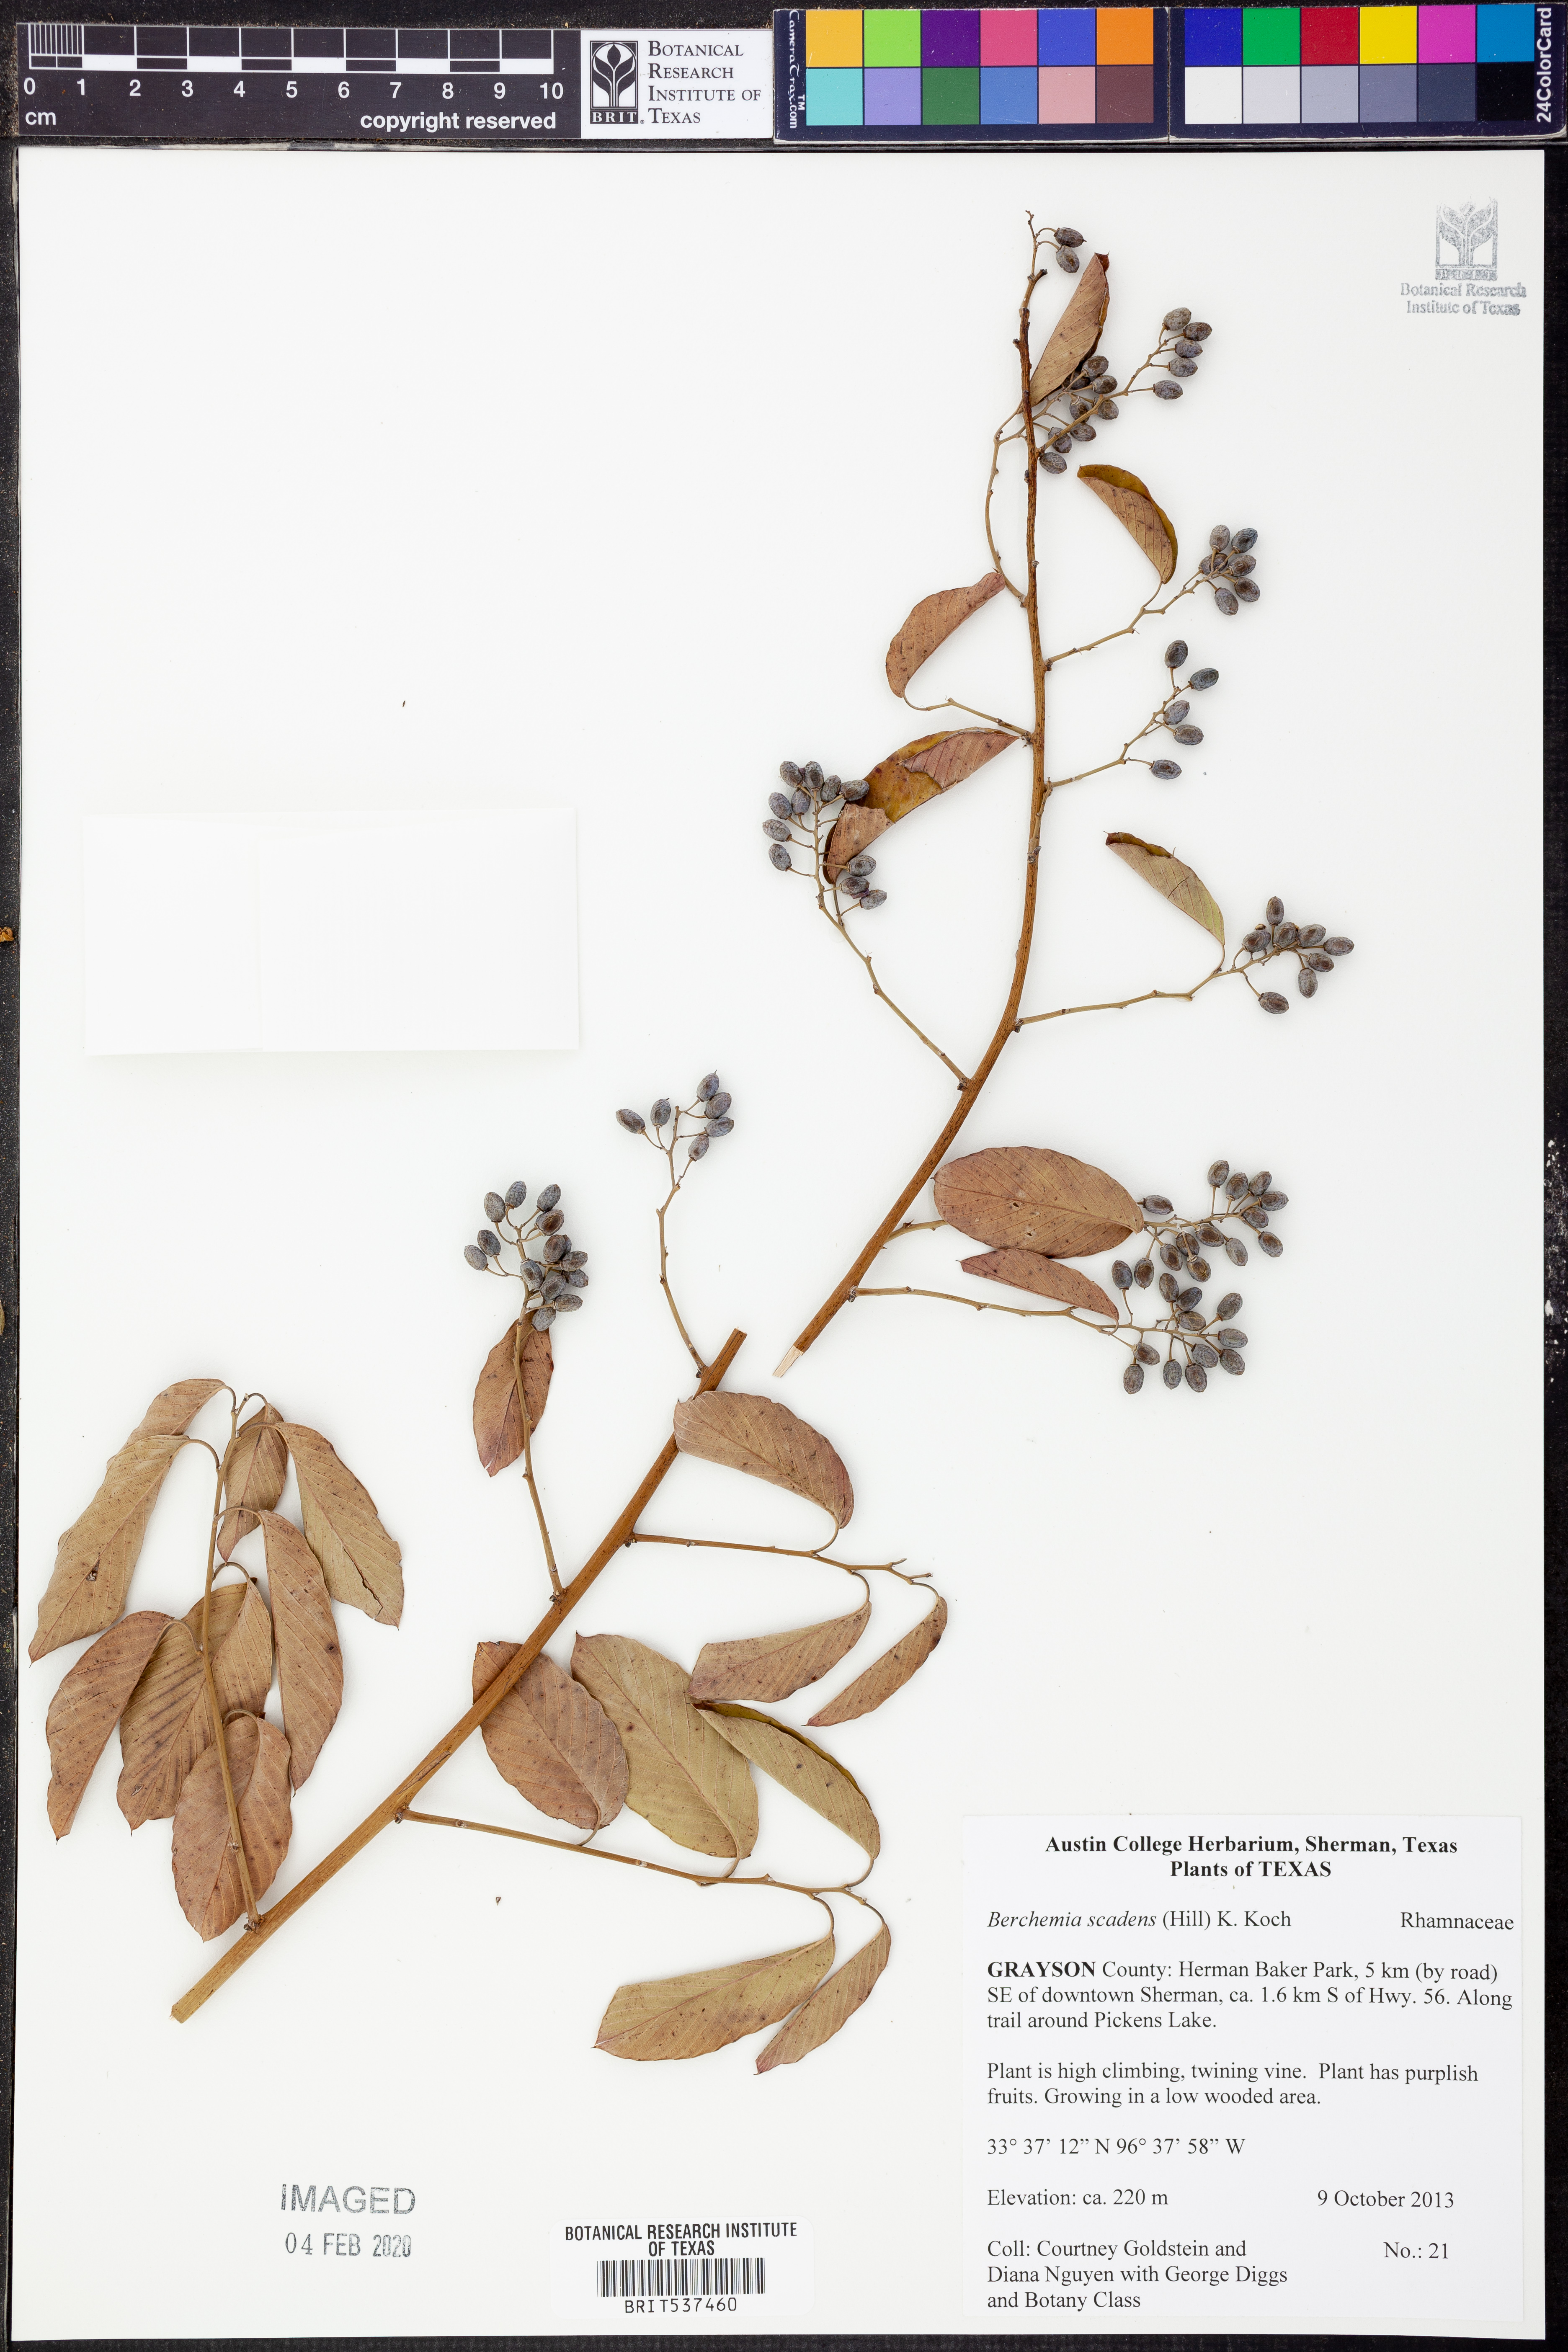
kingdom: Plantae
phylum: Tracheophyta
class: Magnoliopsida
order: Rosales
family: Rhamnaceae
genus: Berchemia
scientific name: Berchemia scandens
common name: Supplejack
